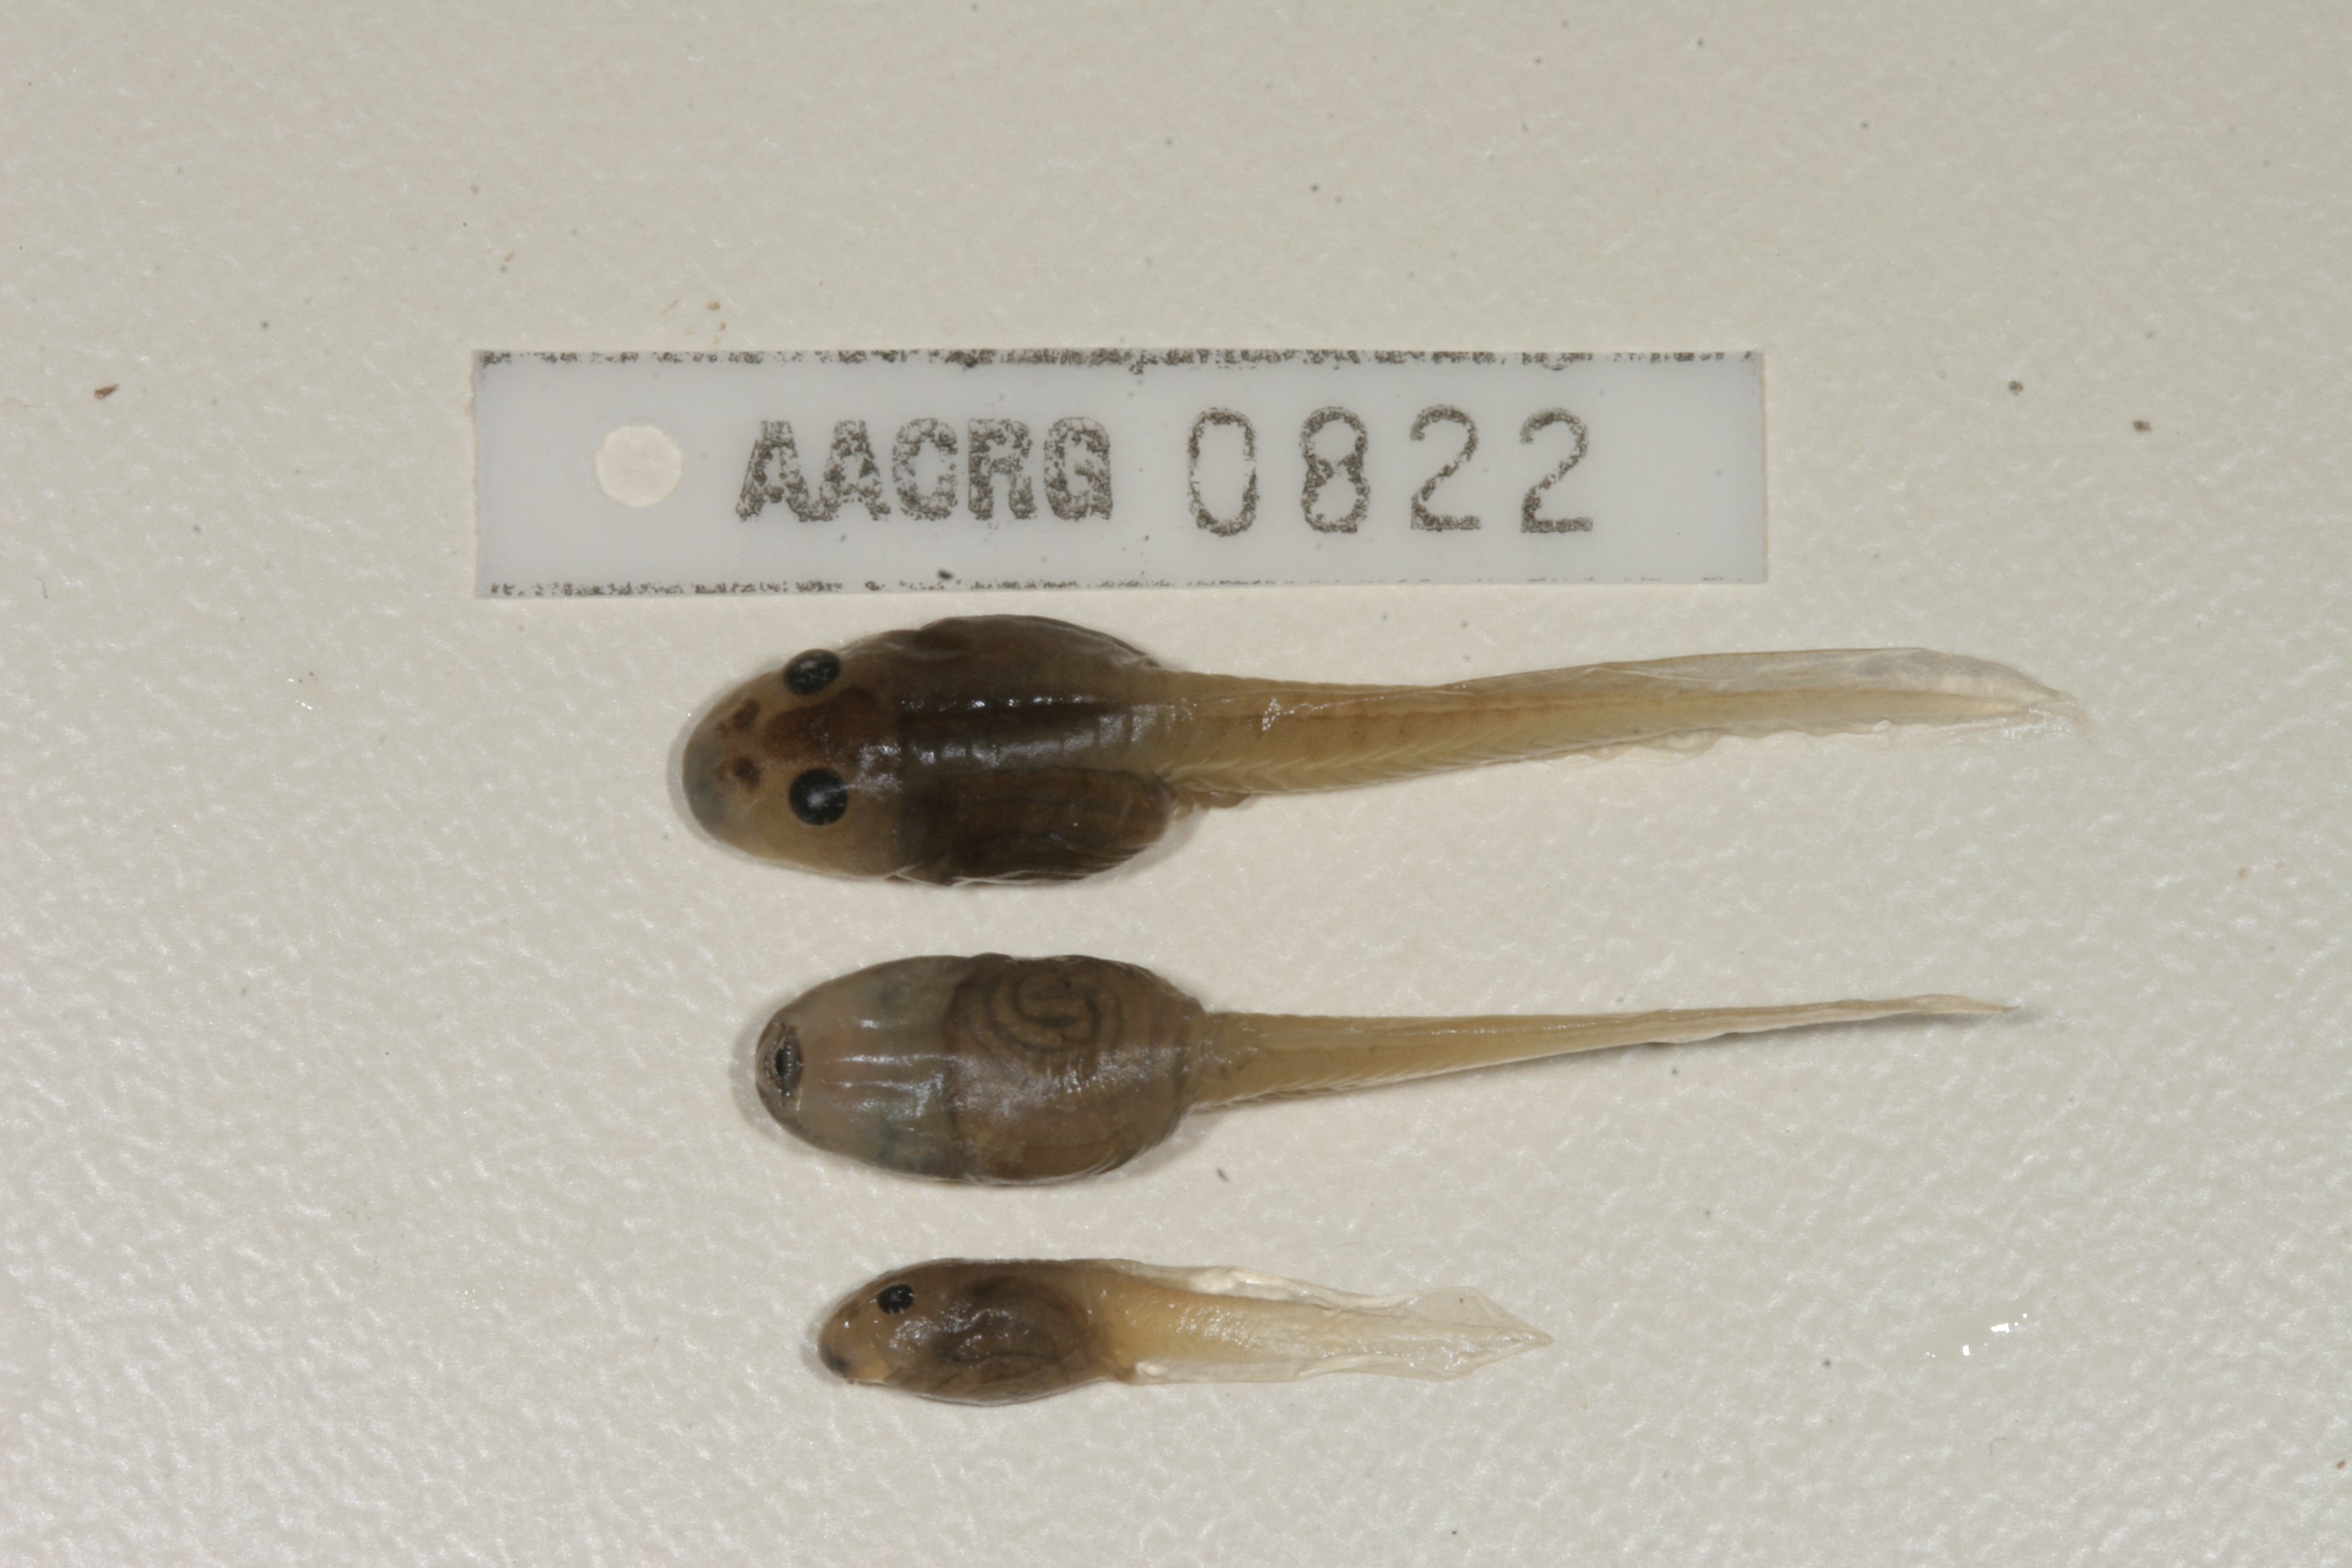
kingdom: Animalia
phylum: Chordata
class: Amphibia
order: Anura
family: Pyxicephalidae
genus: Strongylopus
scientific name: Strongylopus grayii
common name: Gray's stream frog
